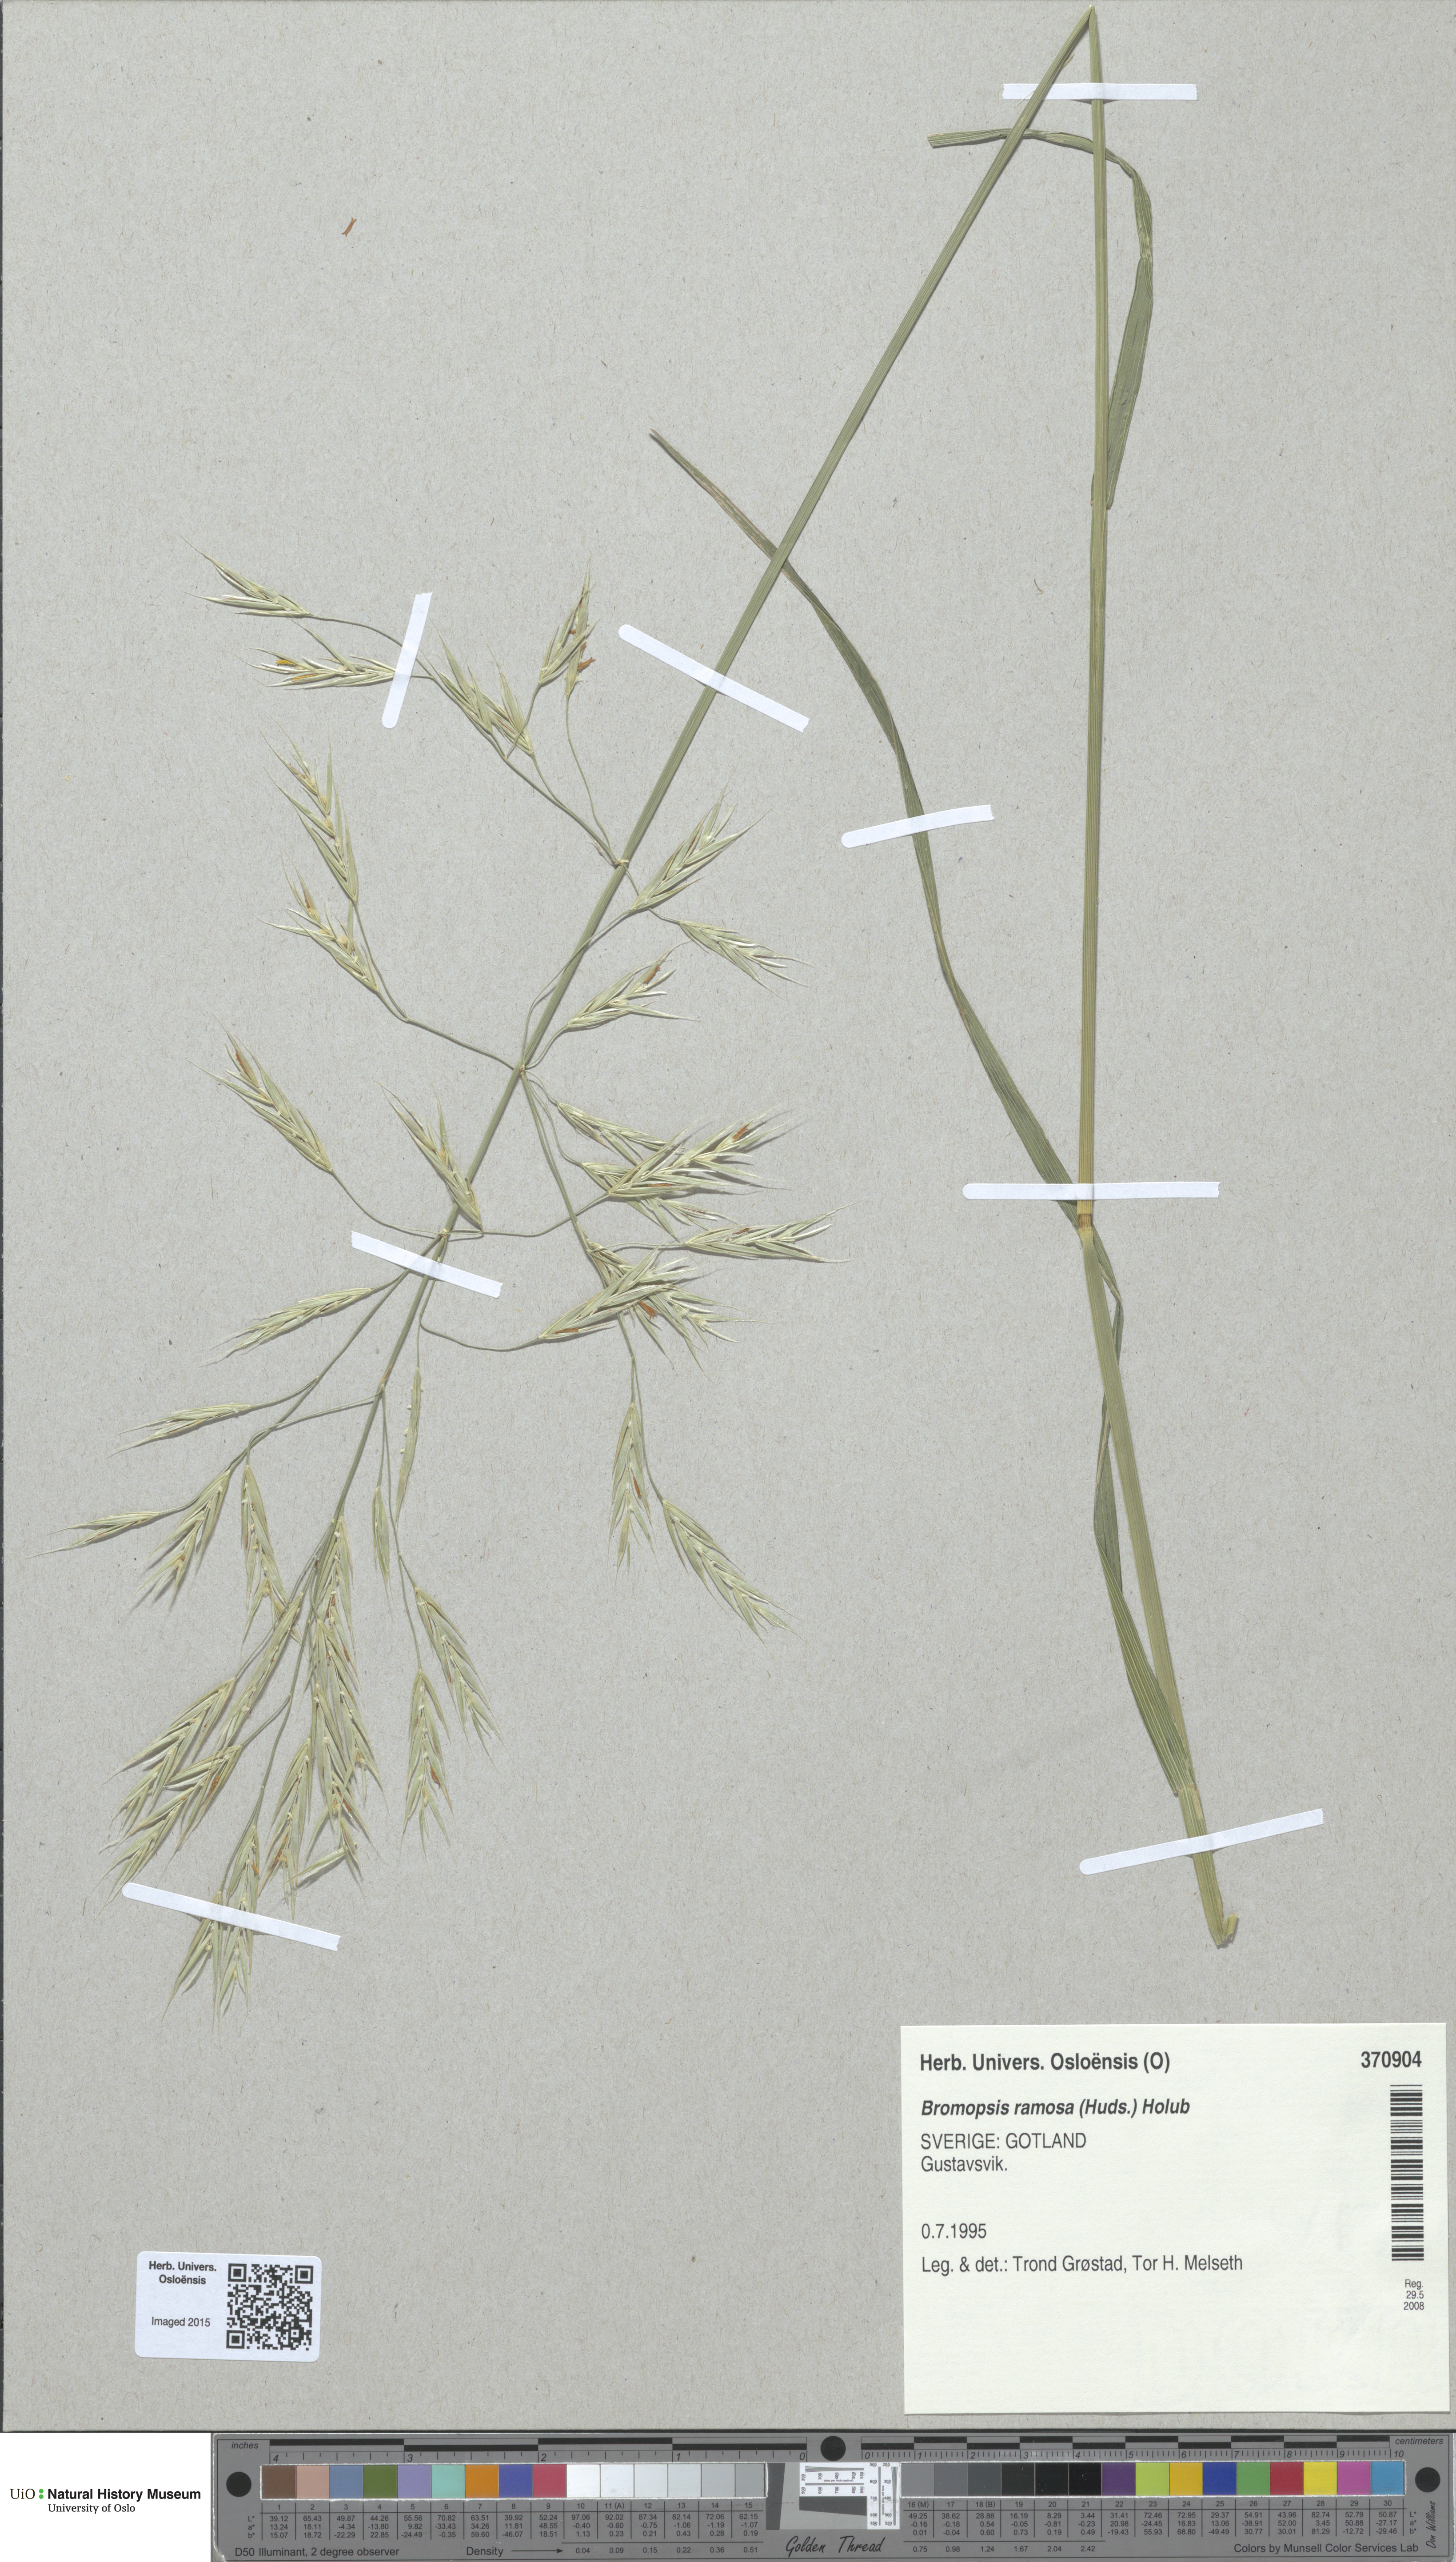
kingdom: Plantae
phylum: Tracheophyta
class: Liliopsida
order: Poales
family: Poaceae
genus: Bromus
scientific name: Bromus ramosus
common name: Hairy brome
